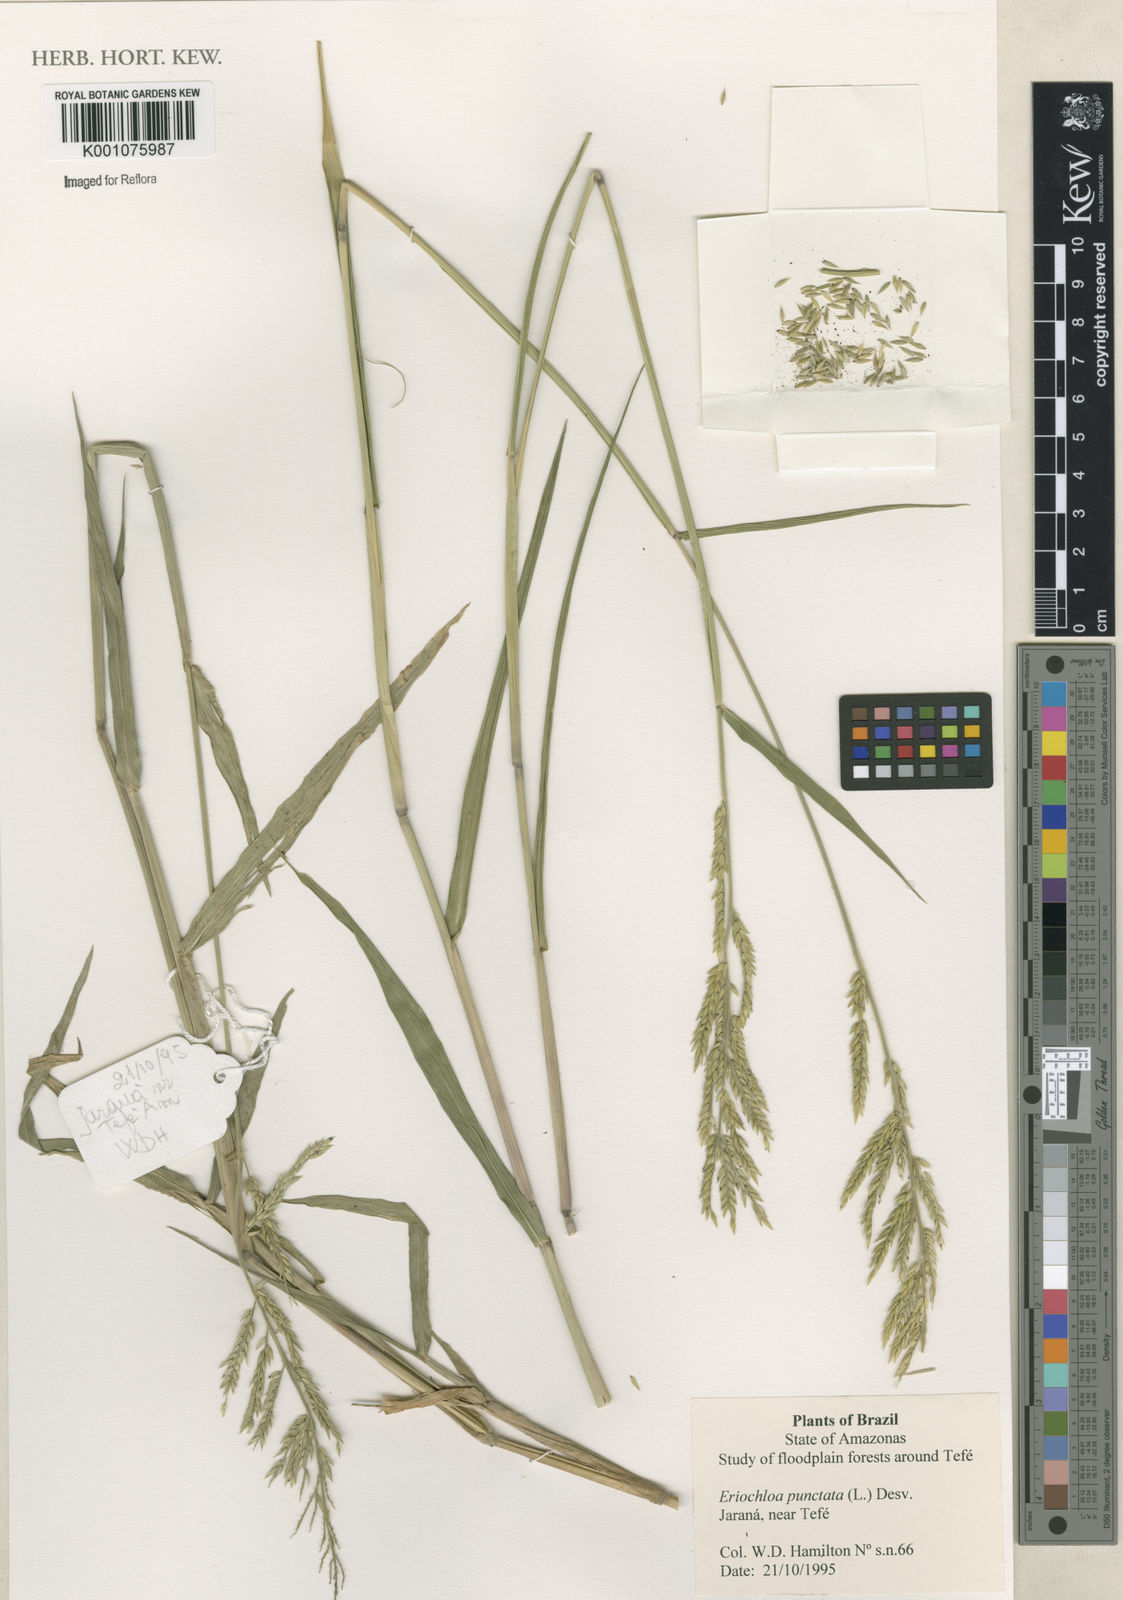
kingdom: Plantae
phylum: Tracheophyta
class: Liliopsida
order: Poales
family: Poaceae
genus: Eriochloa
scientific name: Eriochloa punctata
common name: Louisiana cupgrass
